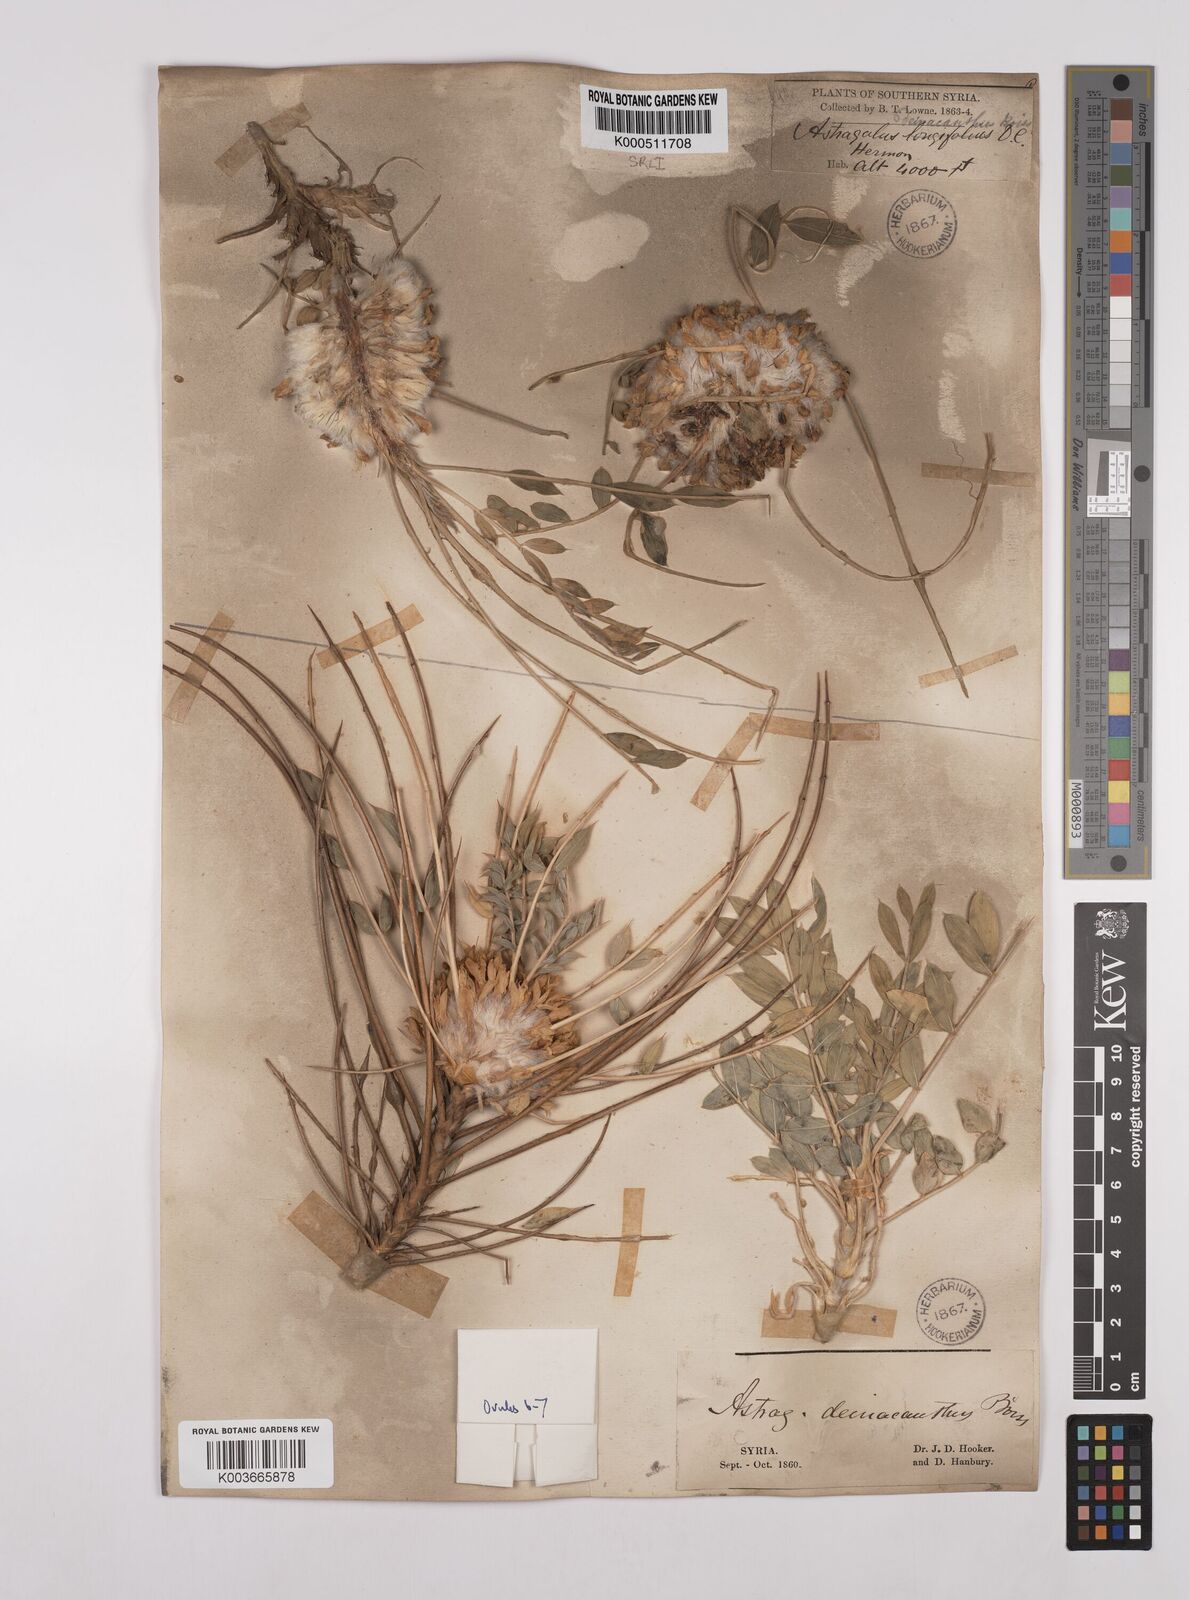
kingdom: Plantae
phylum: Tracheophyta
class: Magnoliopsida
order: Fabales
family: Fabaceae
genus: Astragalus
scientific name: Astragalus oleifolius
